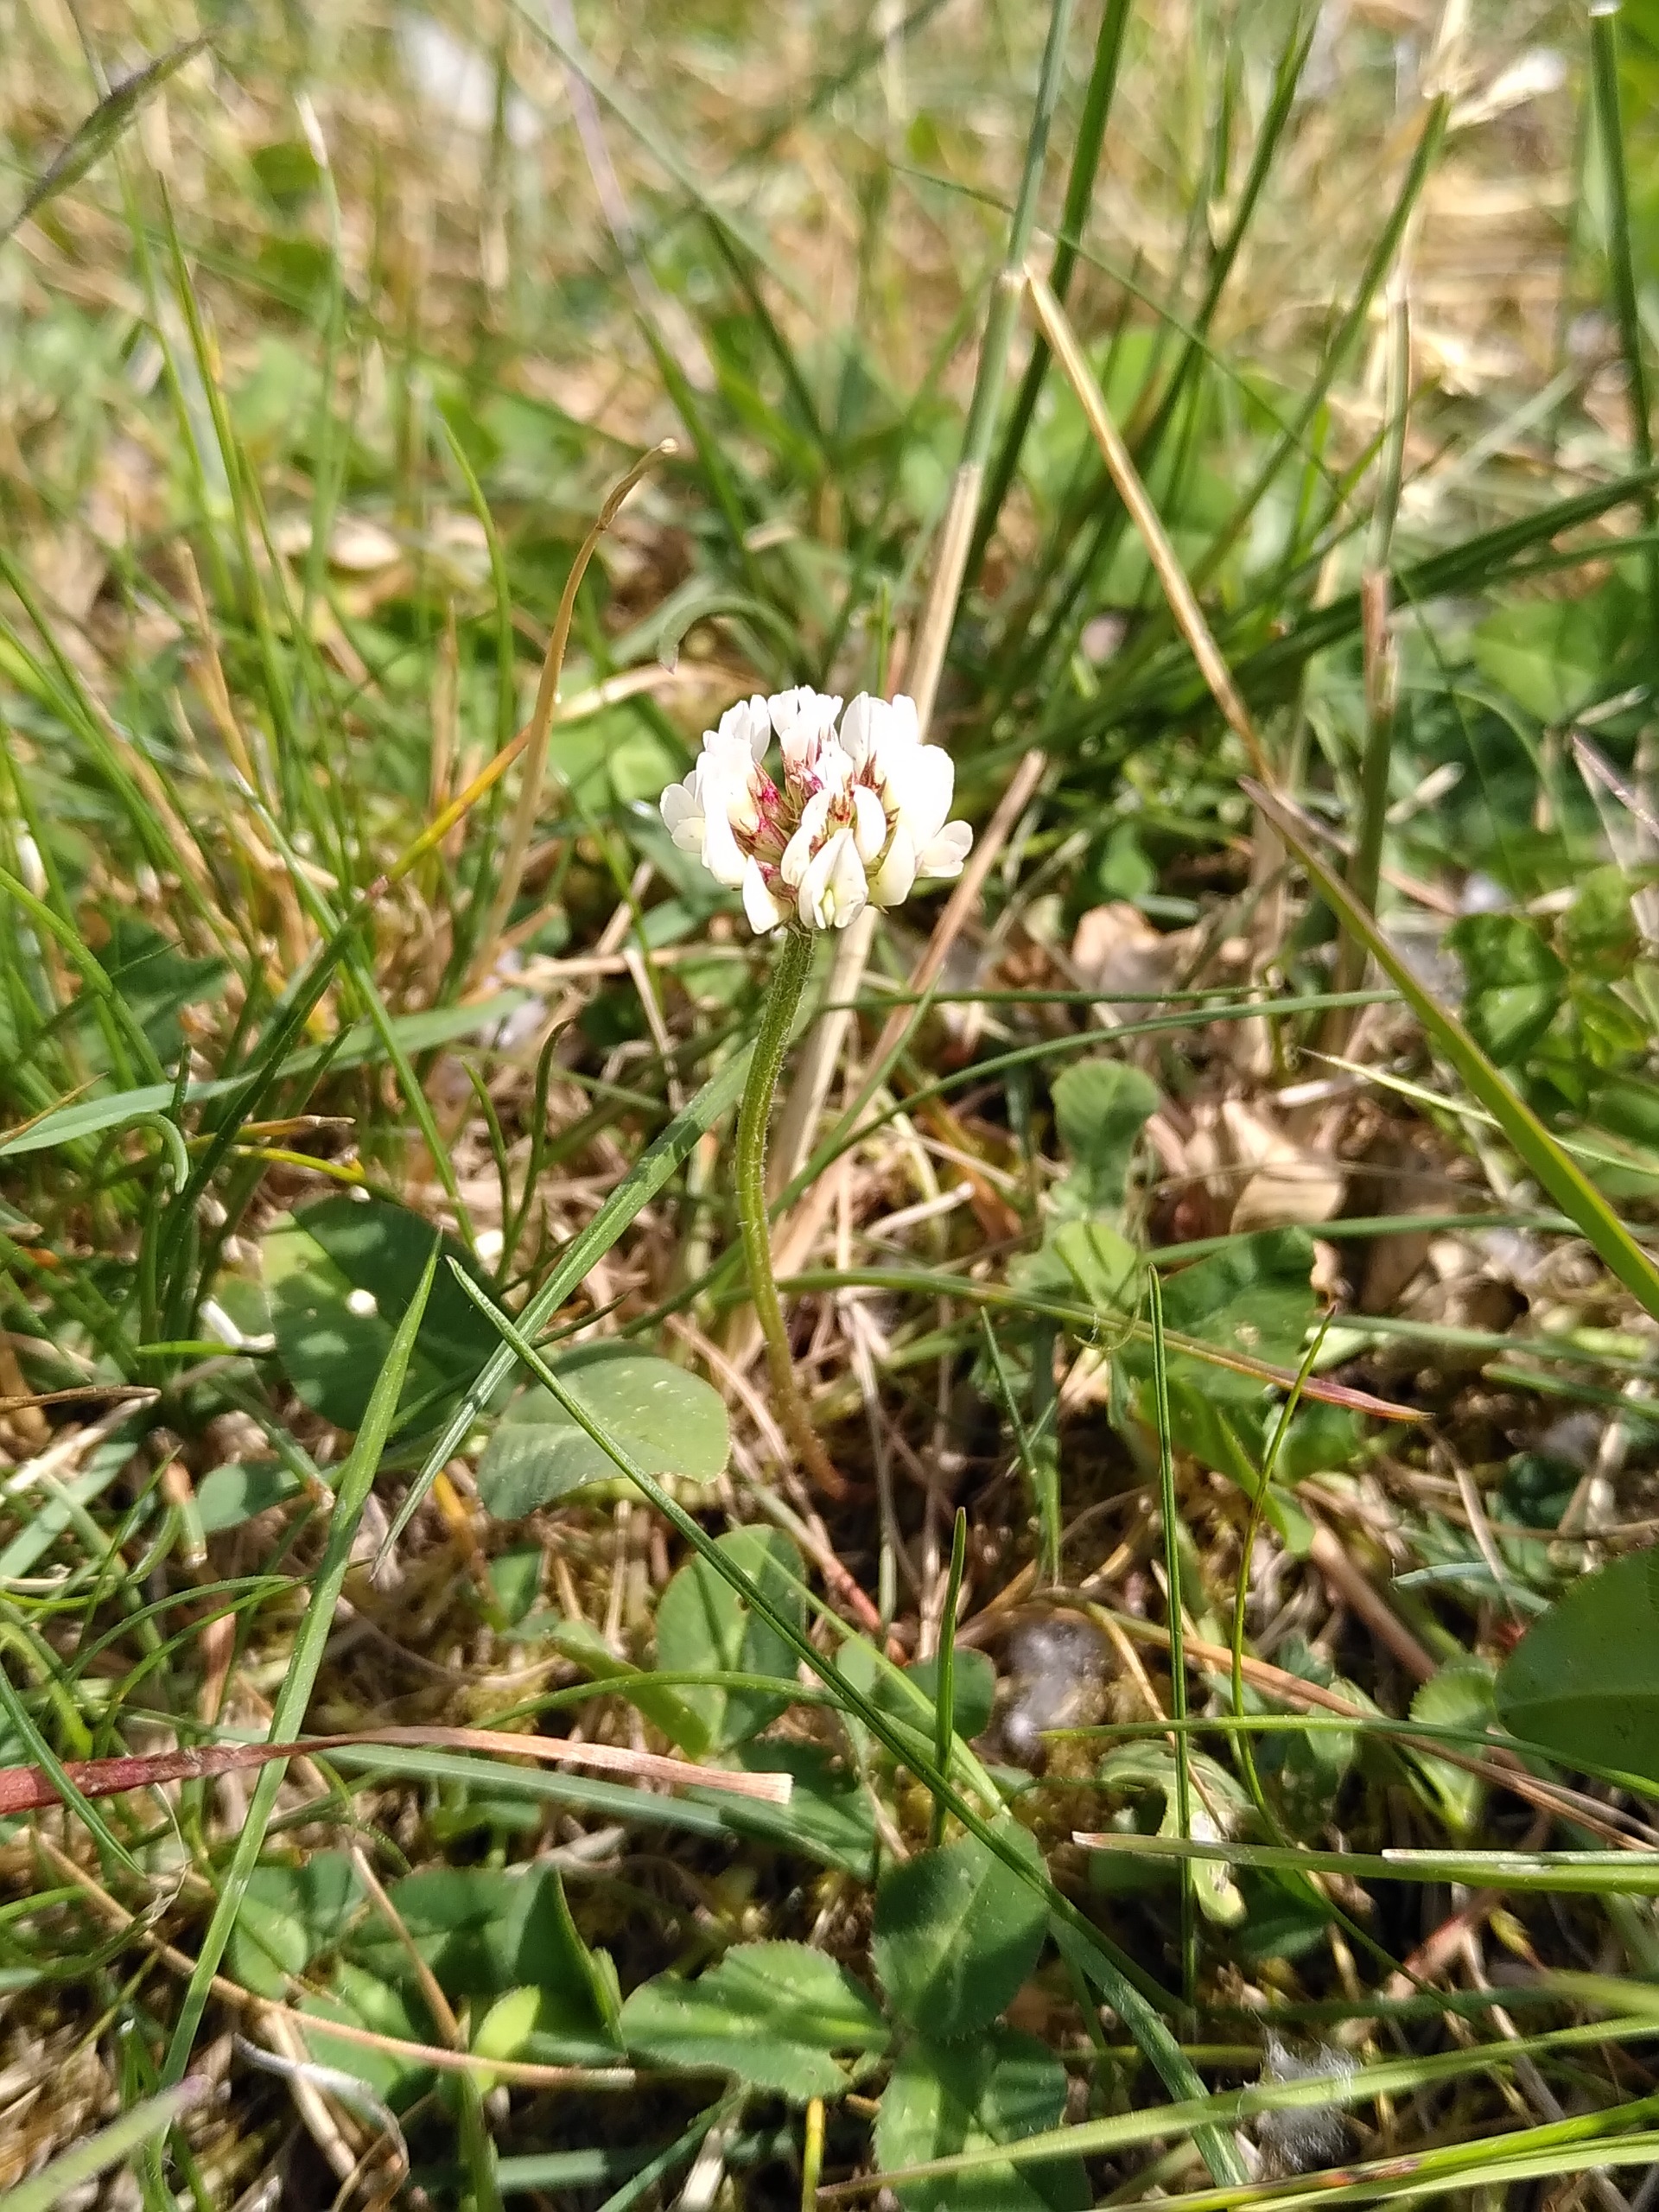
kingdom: Plantae
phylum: Tracheophyta
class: Magnoliopsida
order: Fabales
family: Fabaceae
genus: Trifolium
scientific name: Trifolium repens
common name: Hvid-kløver
